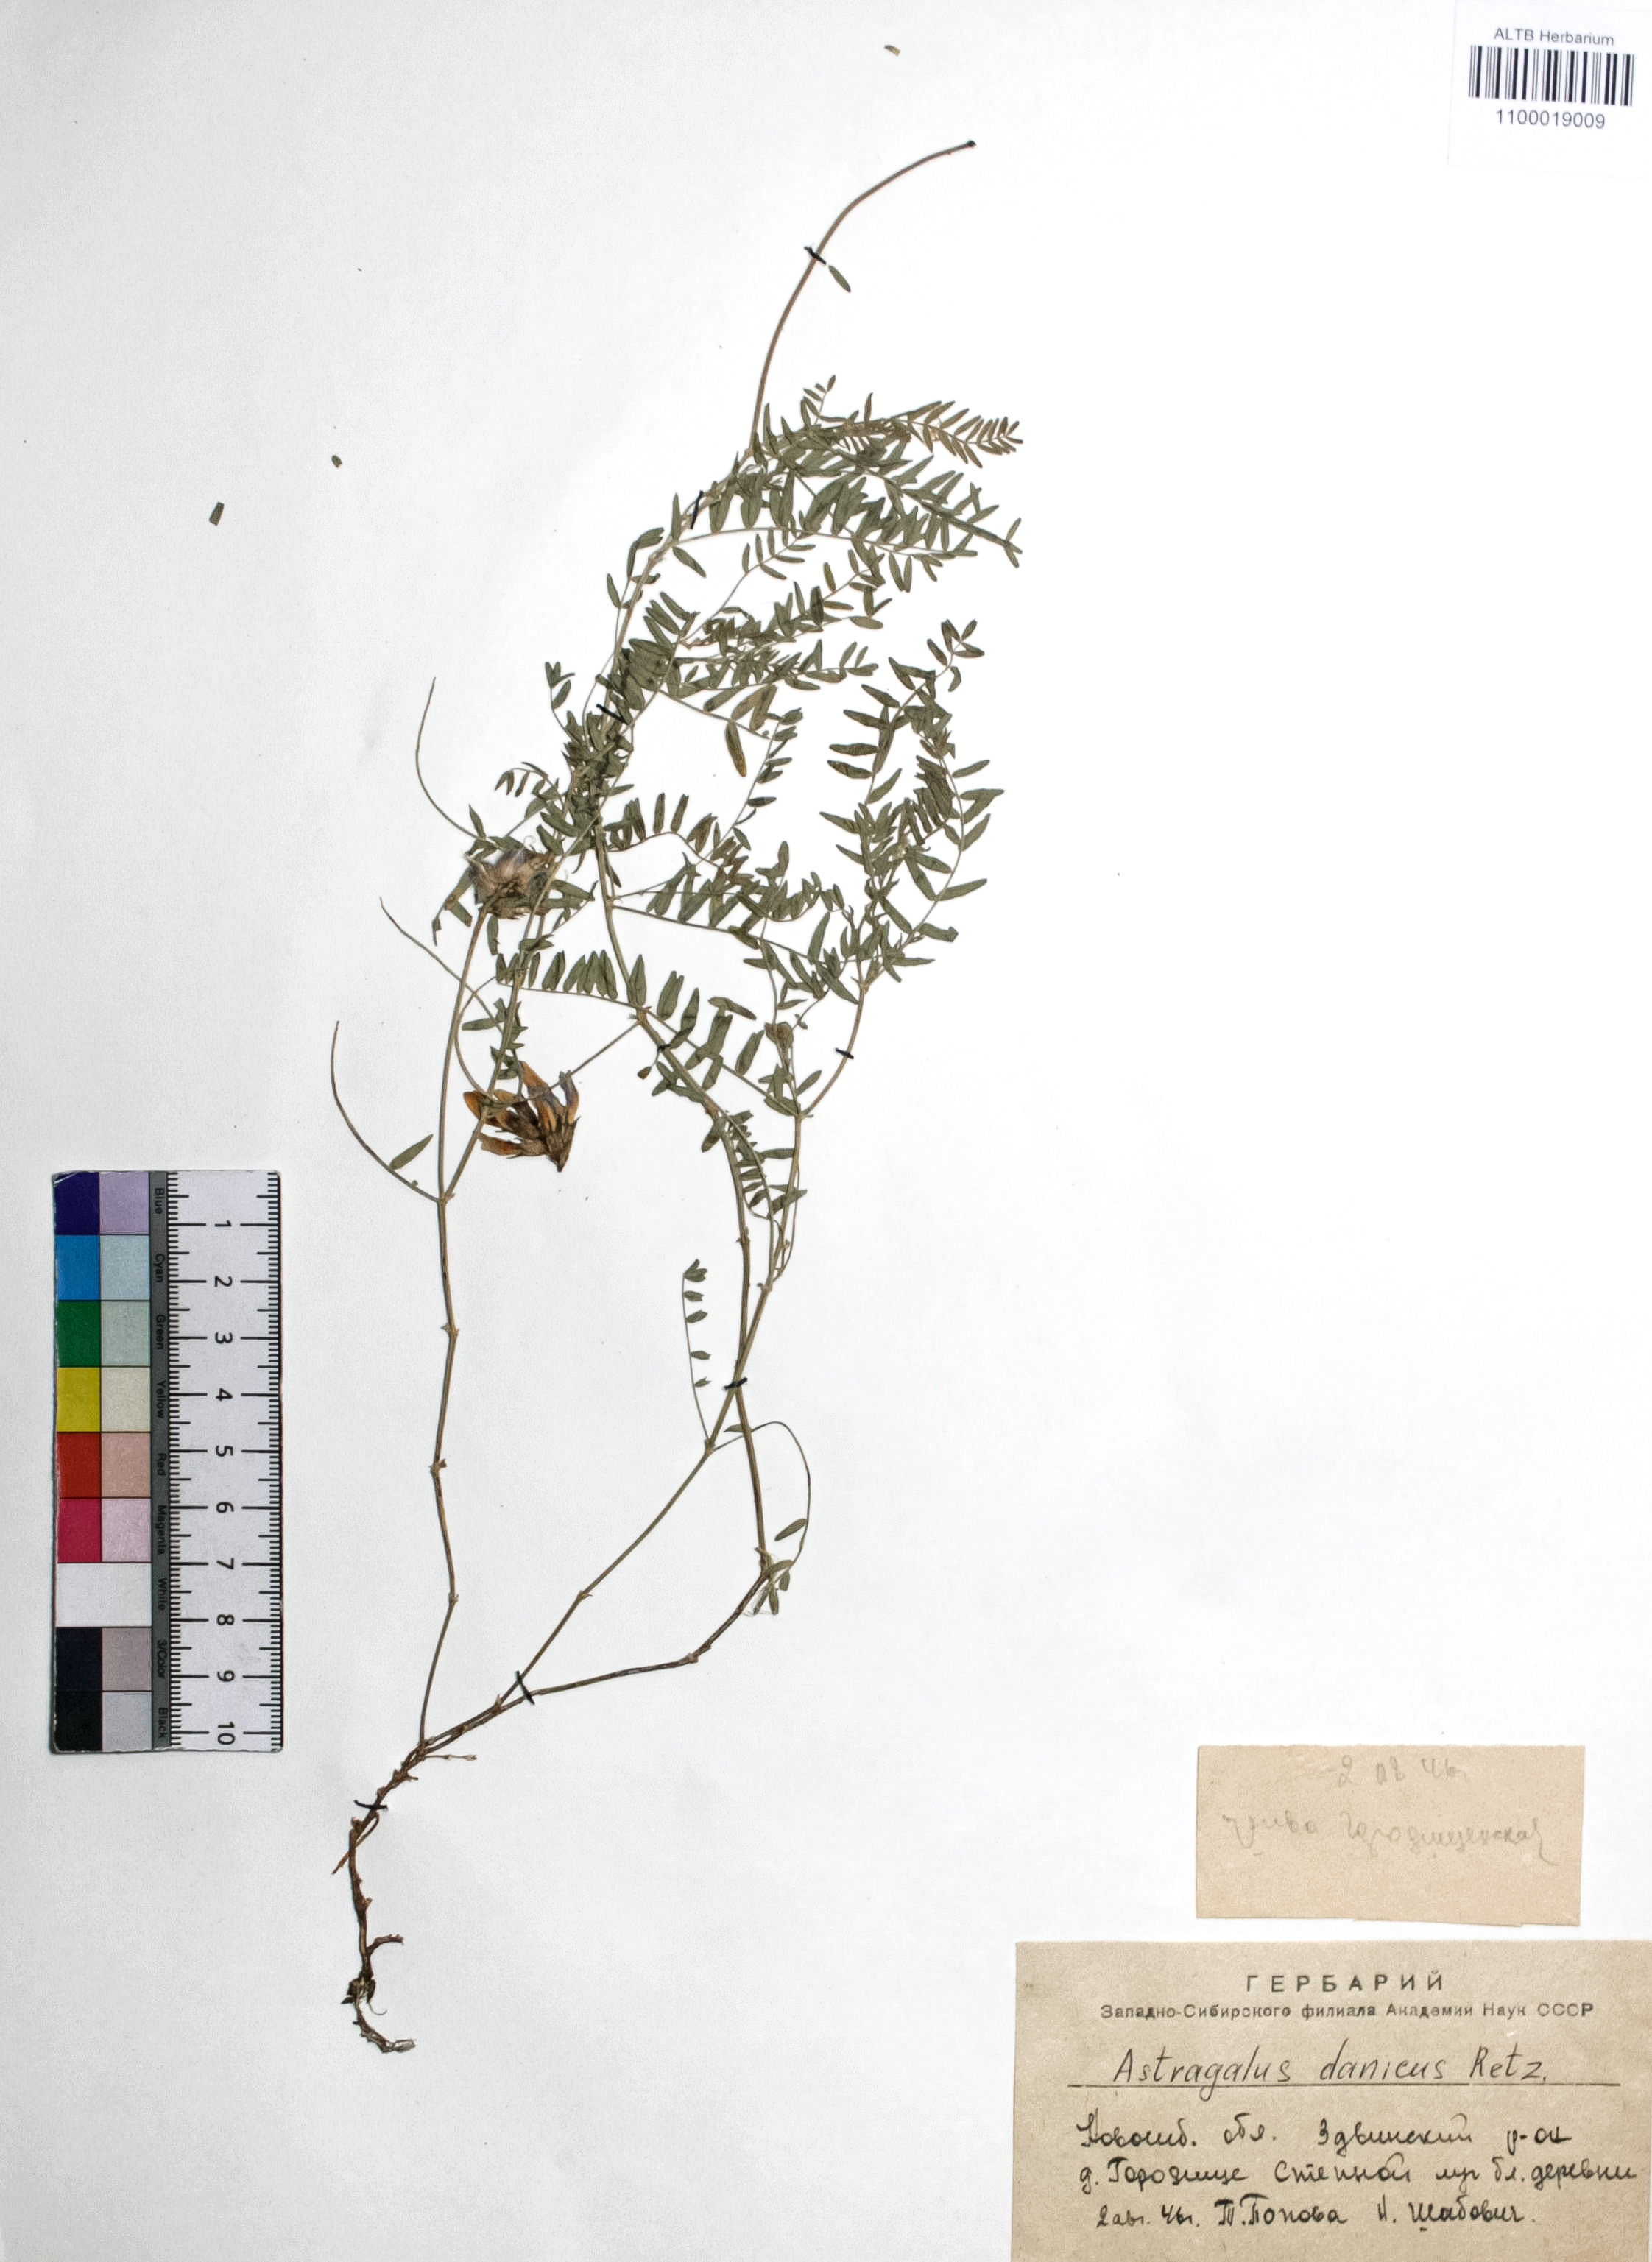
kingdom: Plantae
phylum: Tracheophyta
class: Magnoliopsida
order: Fabales
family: Fabaceae
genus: Astragalus
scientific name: Astragalus danicus
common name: Purple milk-vetch
